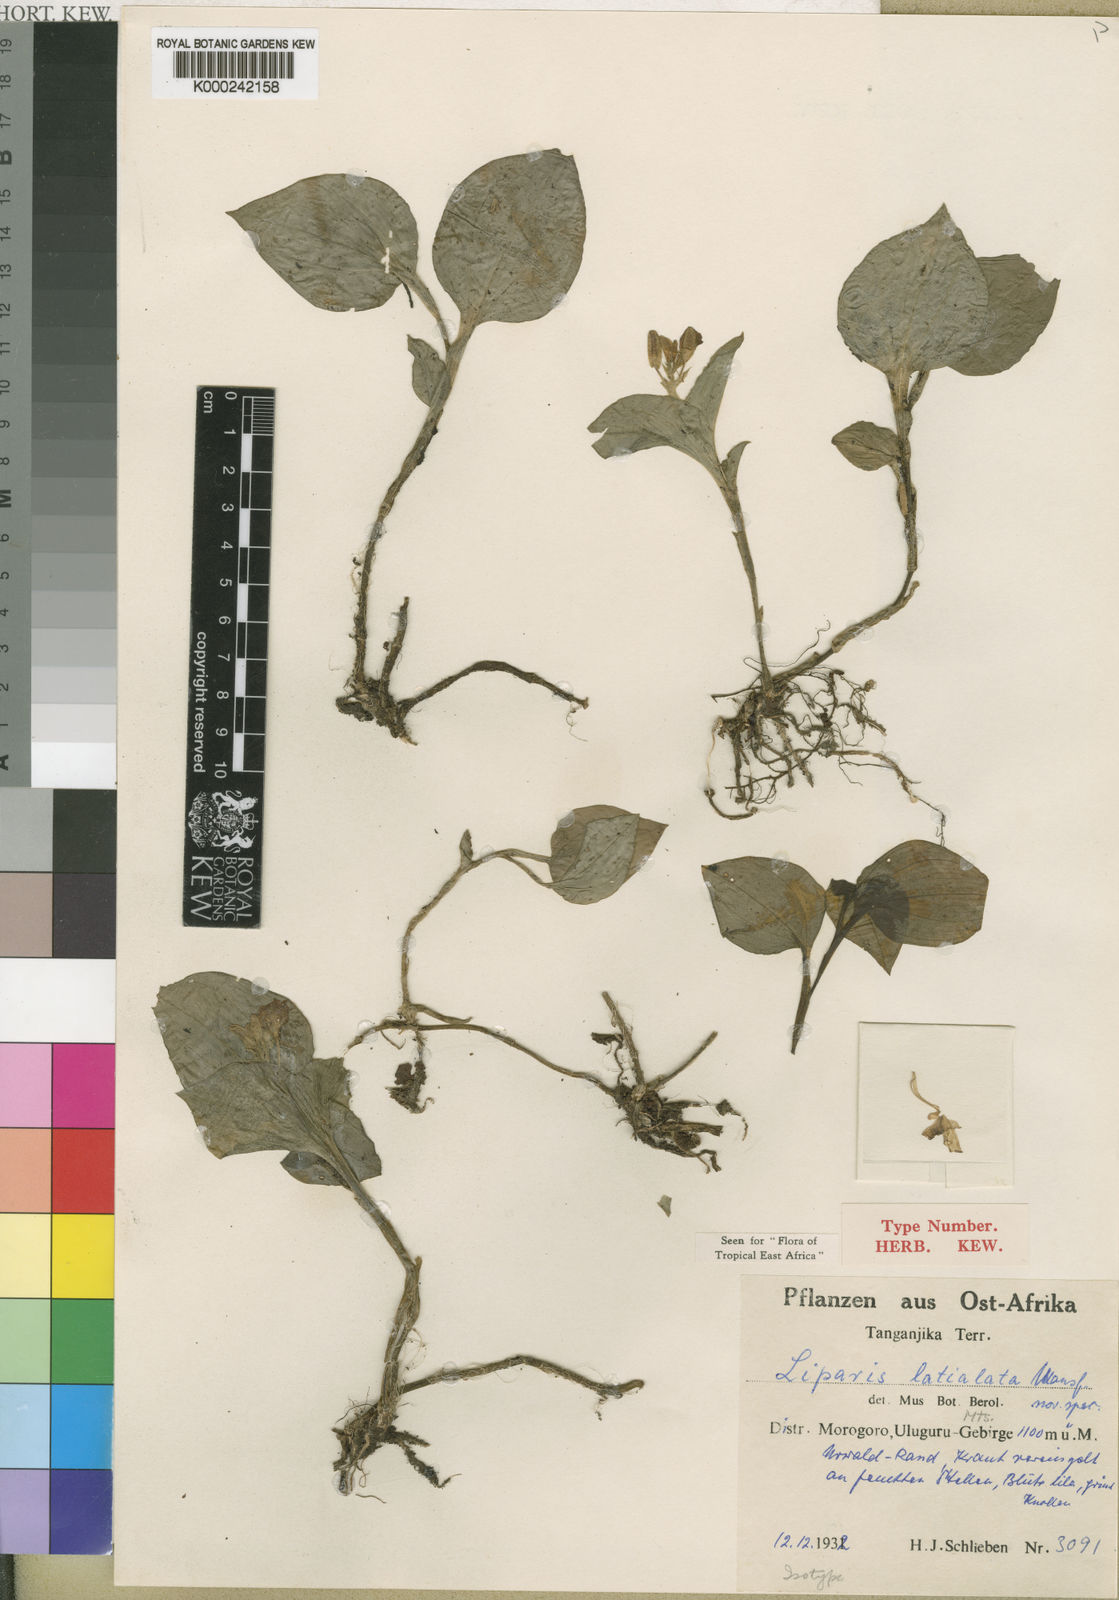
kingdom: Plantae
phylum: Tracheophyta
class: Liliopsida
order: Asparagales
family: Orchidaceae
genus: Liparis
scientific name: Liparis latialata
